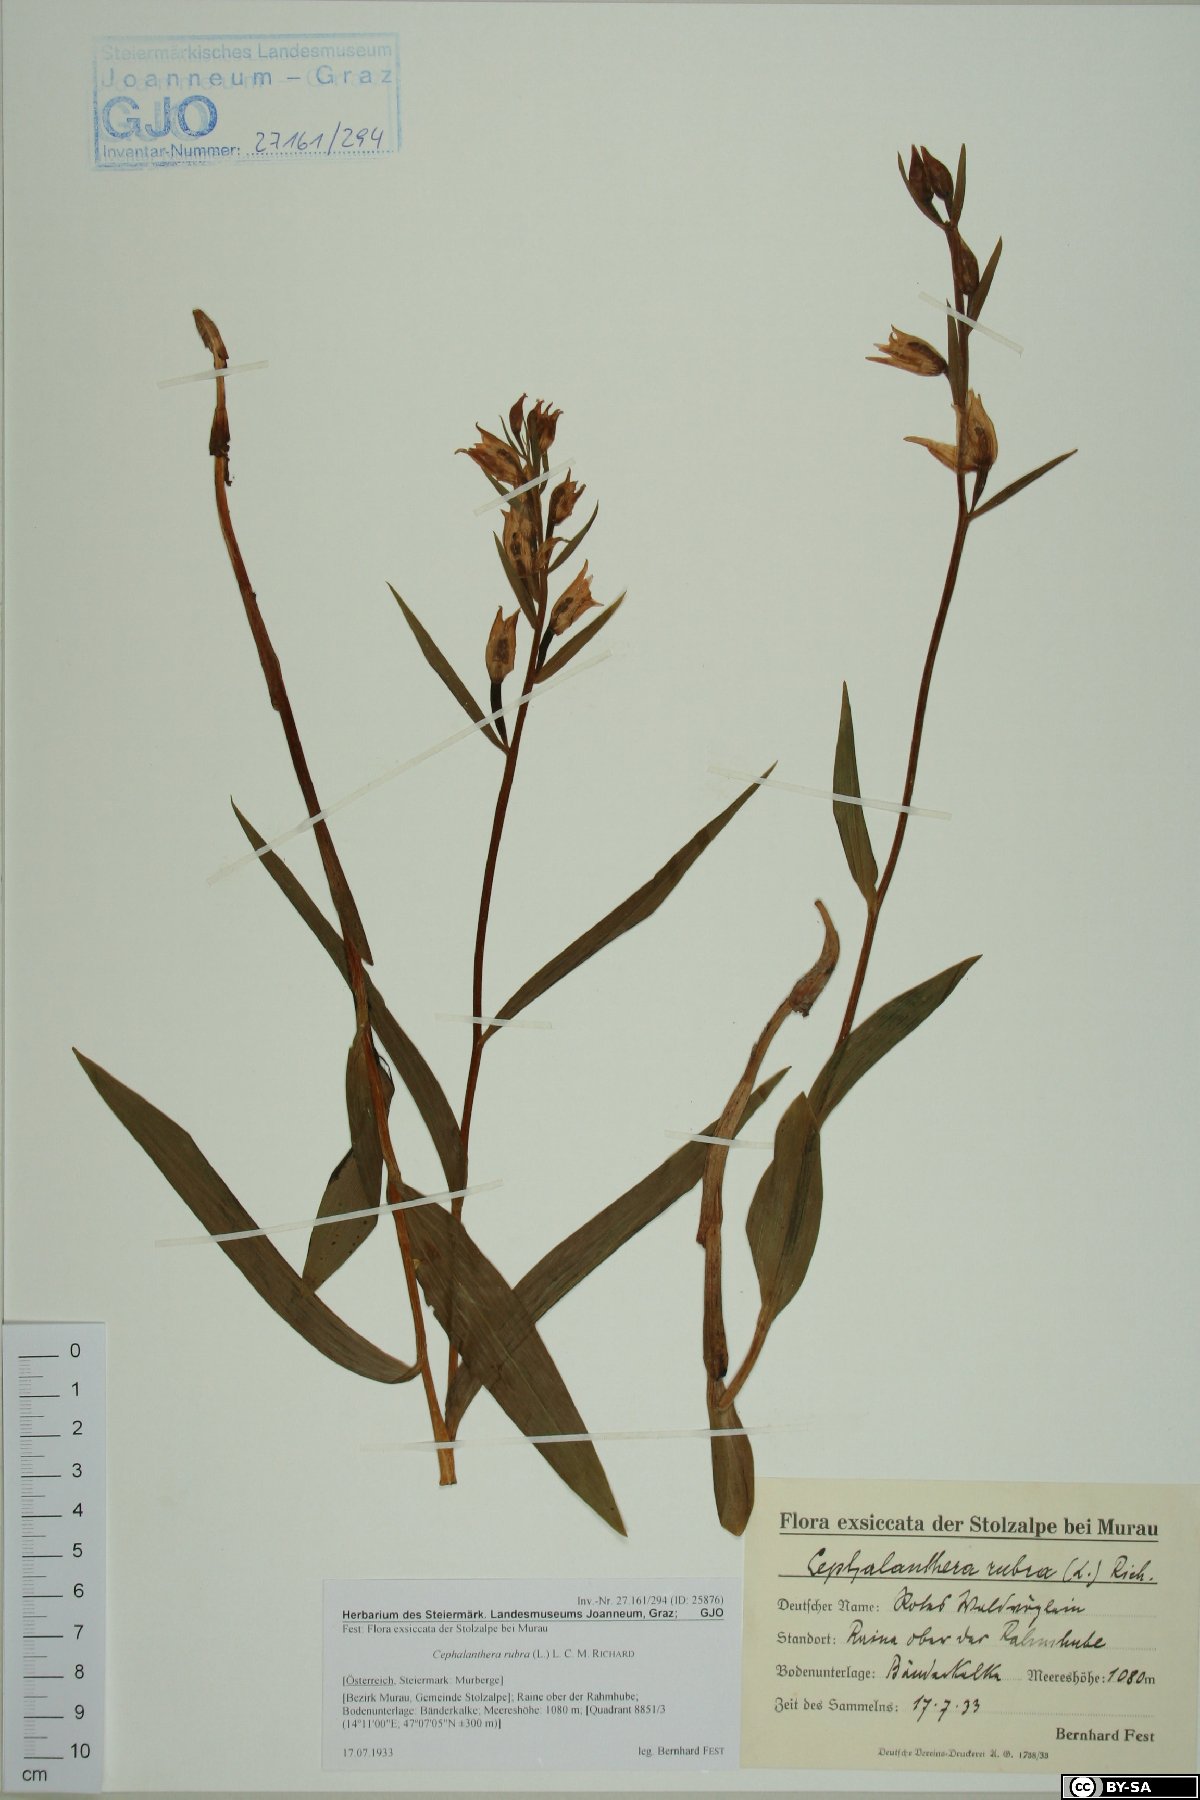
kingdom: Plantae
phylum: Tracheophyta
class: Liliopsida
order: Asparagales
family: Orchidaceae
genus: Cephalanthera
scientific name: Cephalanthera rubra
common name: Red helleborine
